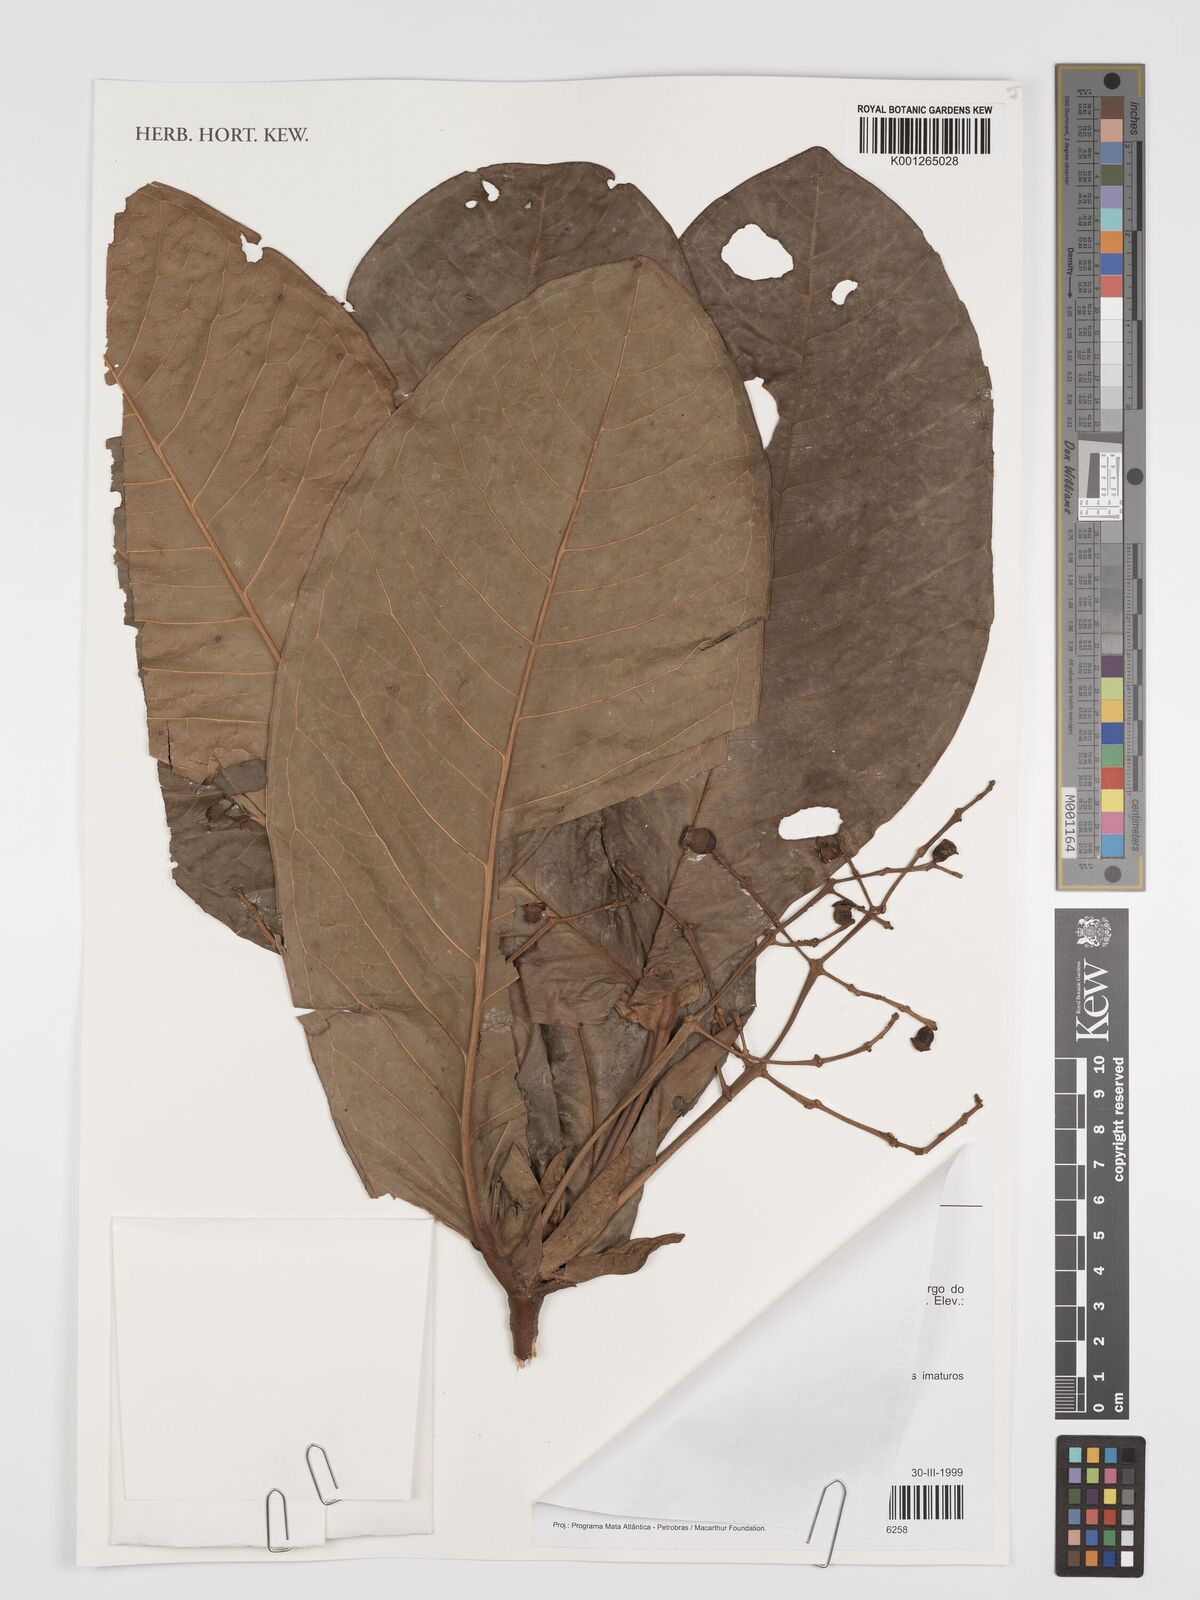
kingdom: Plantae
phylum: Tracheophyta
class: Magnoliopsida
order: Myrtales
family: Myrtaceae
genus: Myrcia
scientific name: Myrcia carioca
